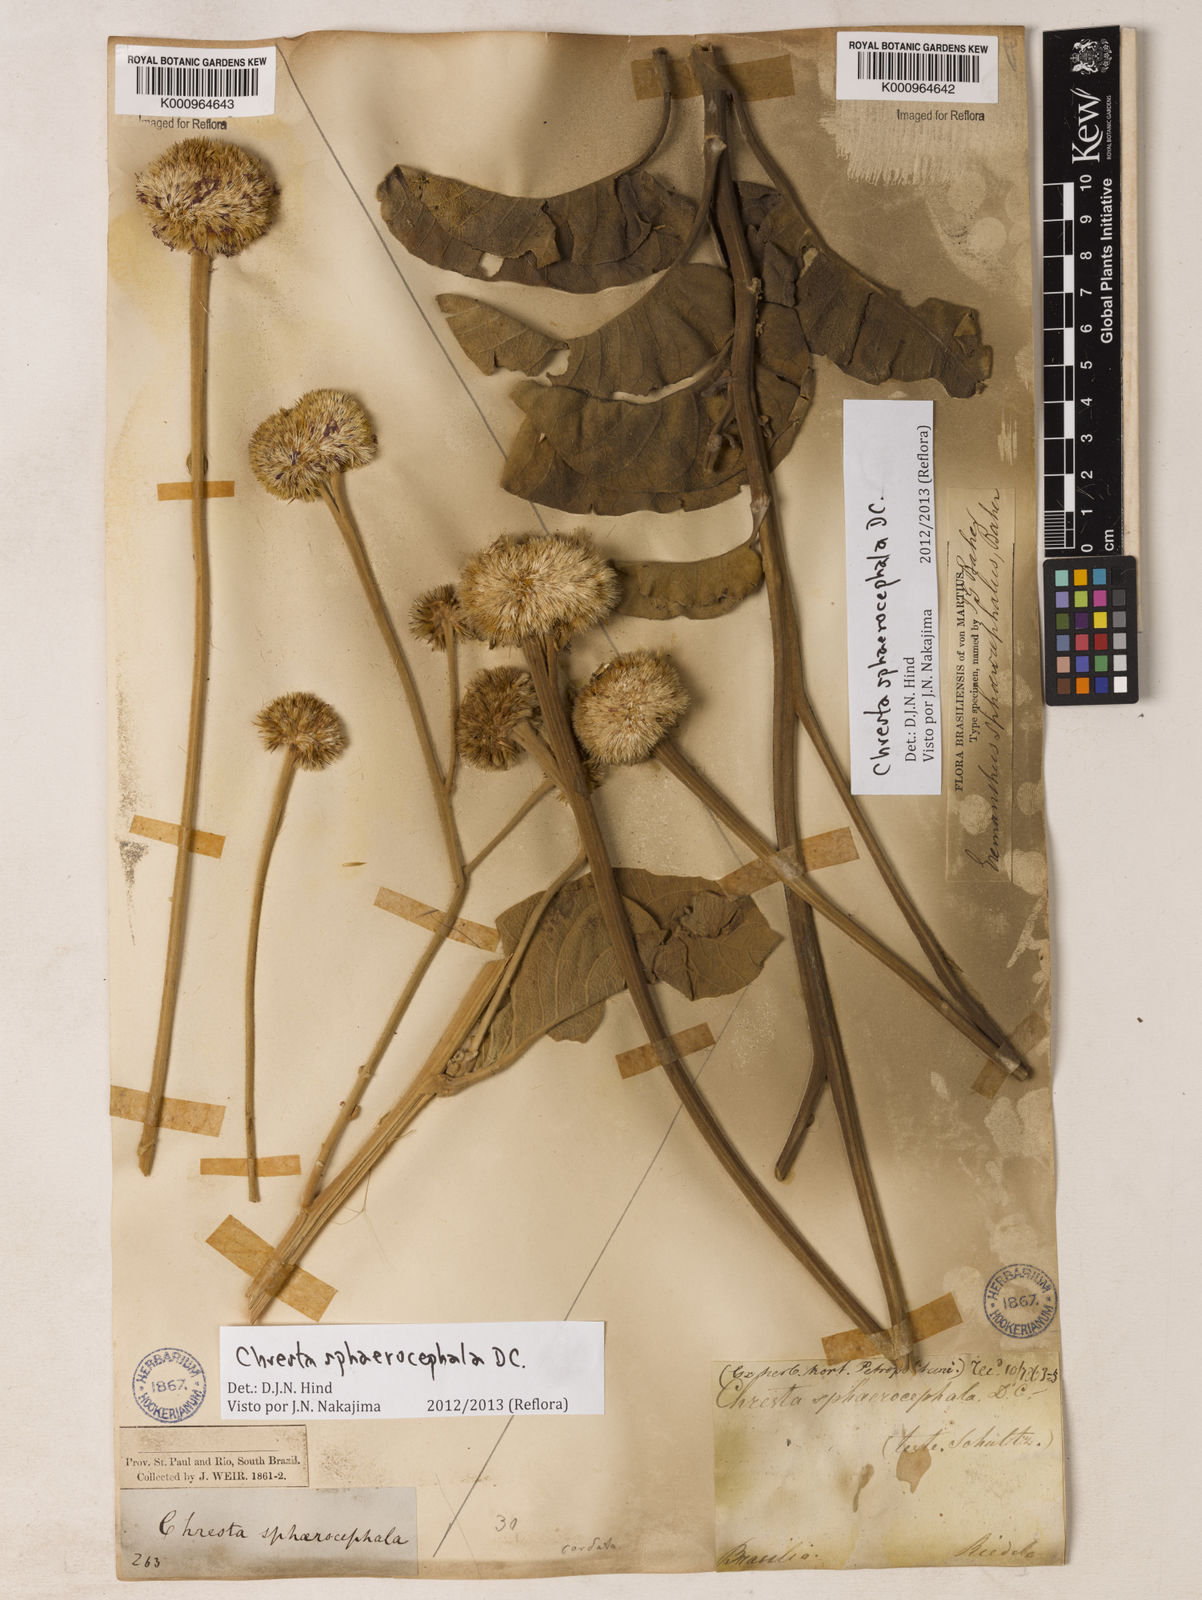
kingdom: Plantae
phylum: Tracheophyta
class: Magnoliopsida
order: Asterales
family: Asteraceae
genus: Chresta
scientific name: Chresta sphaerocephala
